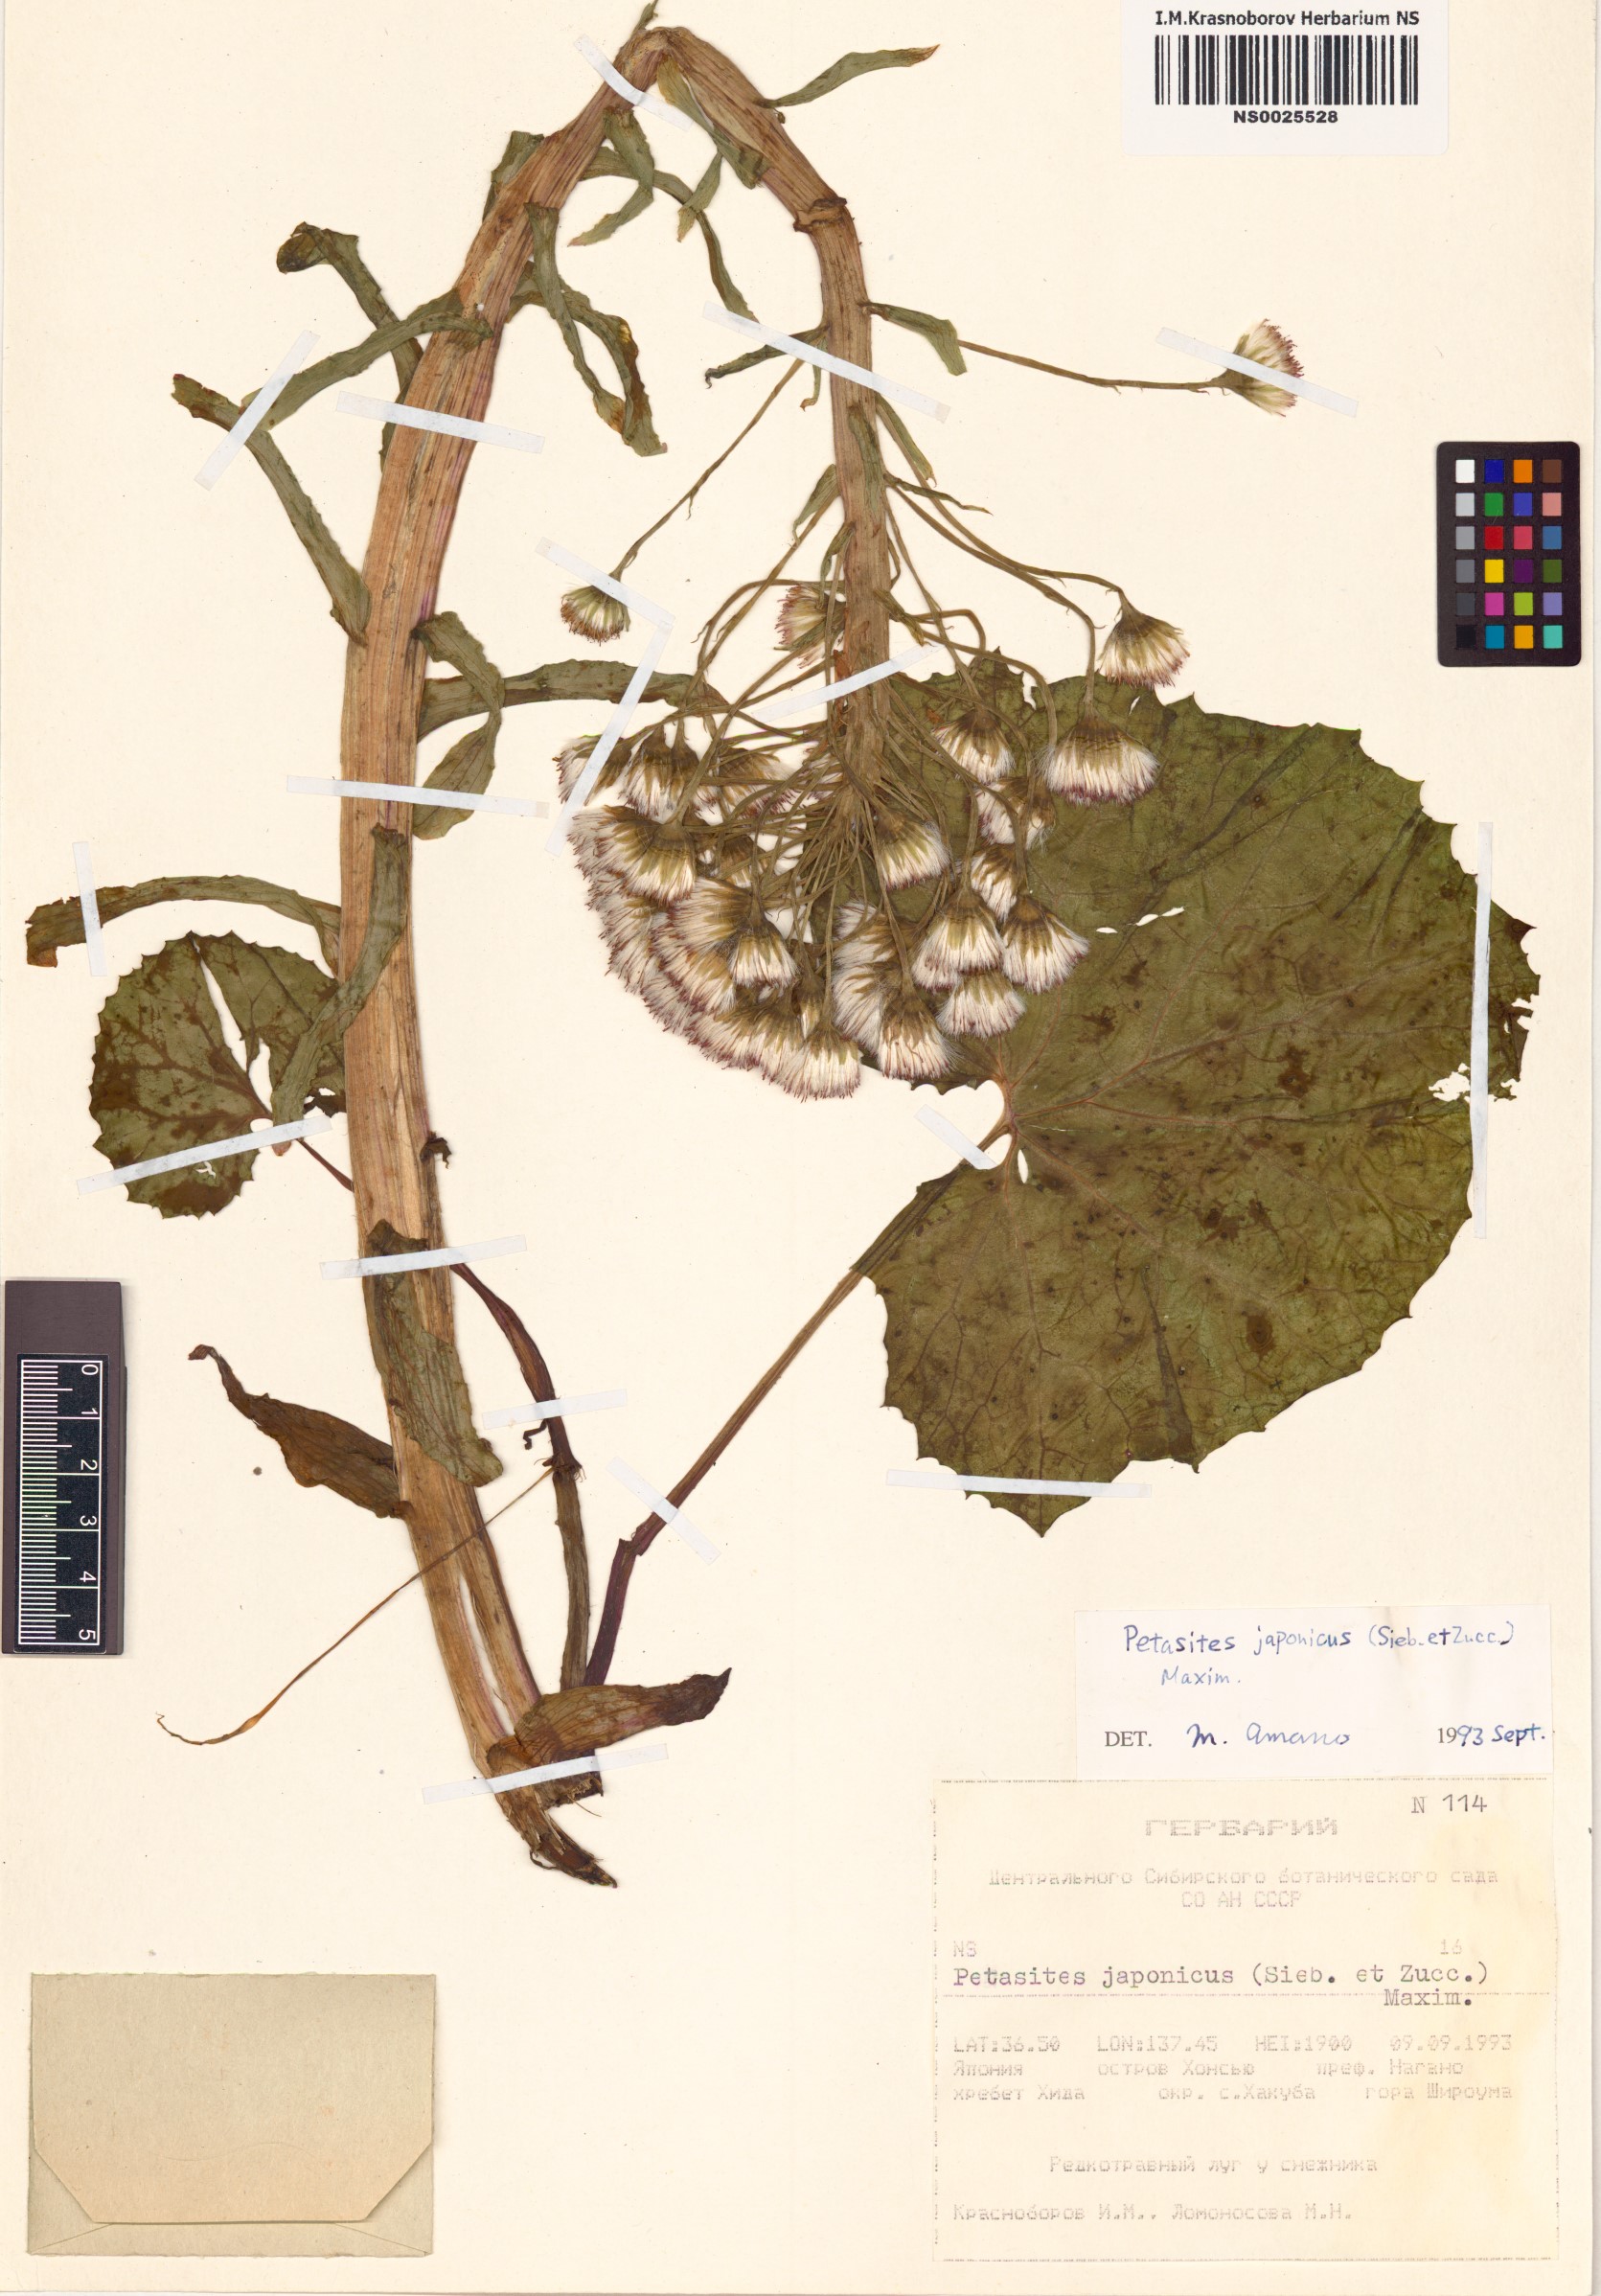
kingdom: Plantae
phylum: Tracheophyta
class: Magnoliopsida
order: Asterales
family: Asteraceae
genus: Petasites
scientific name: Petasites japonicus
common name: Giant butterbur
